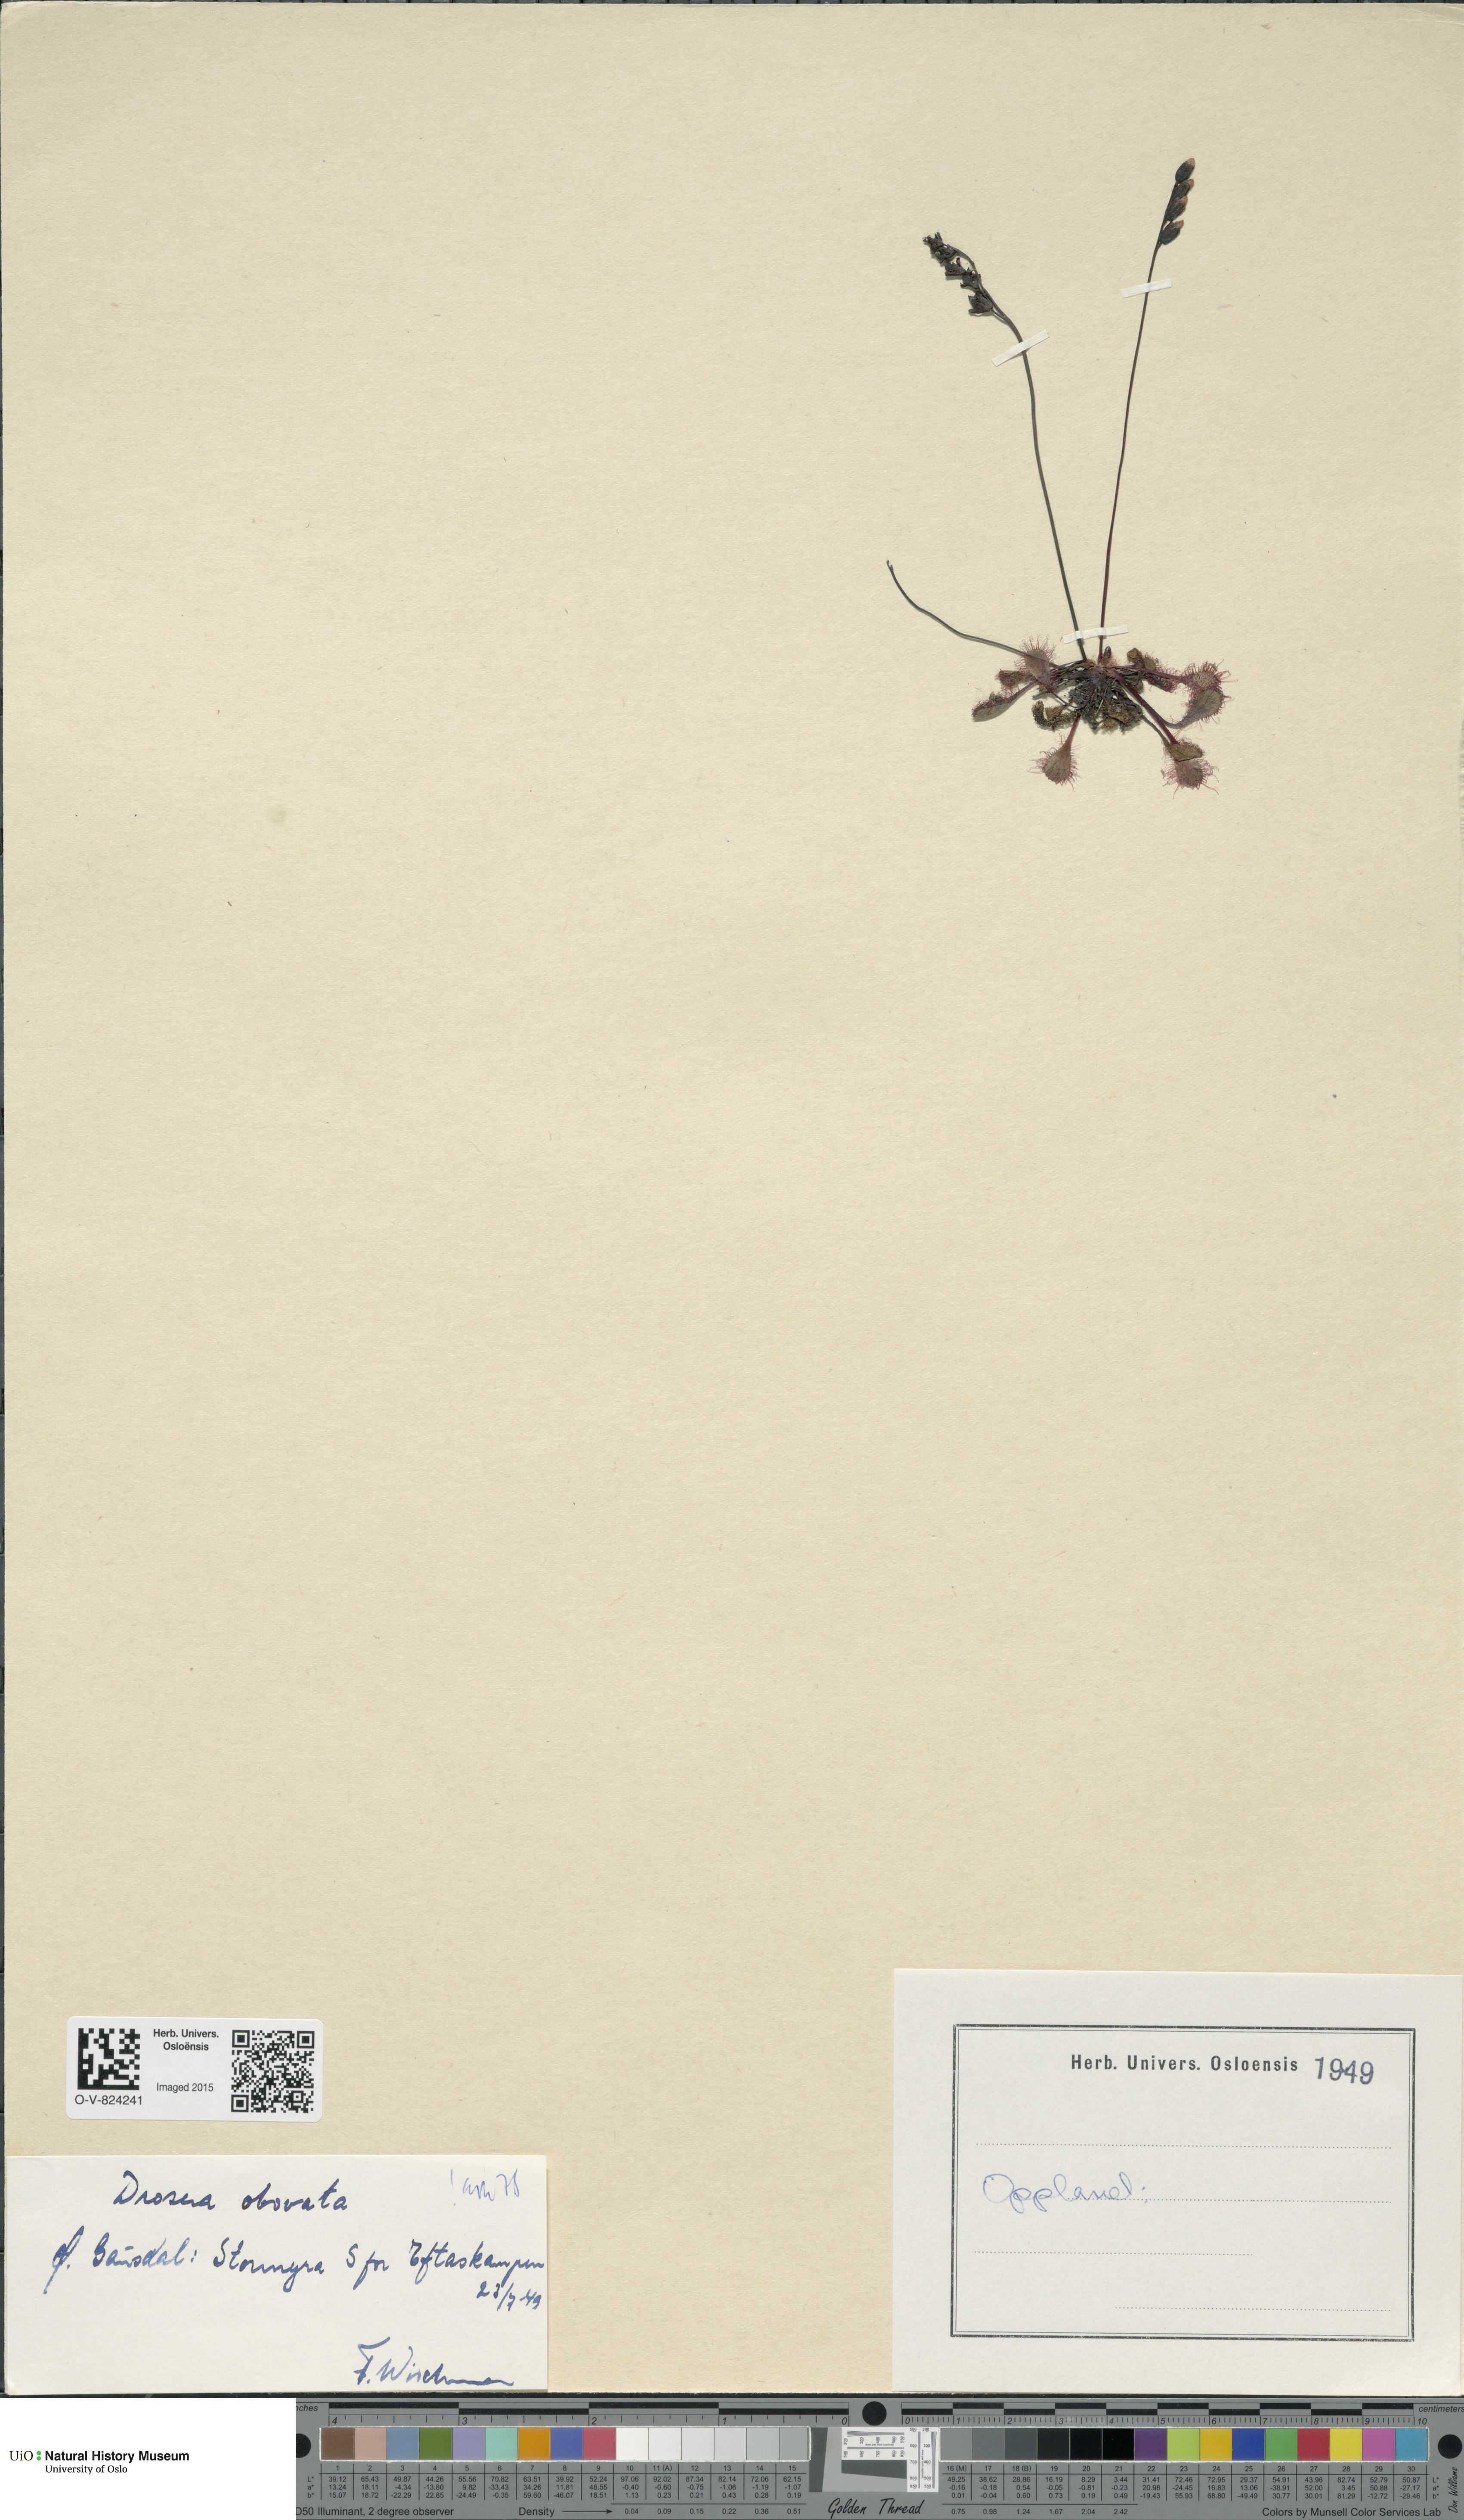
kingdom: Plantae
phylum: Tracheophyta
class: Magnoliopsida
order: Caryophyllales
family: Droseraceae
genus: Drosera
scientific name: Drosera
